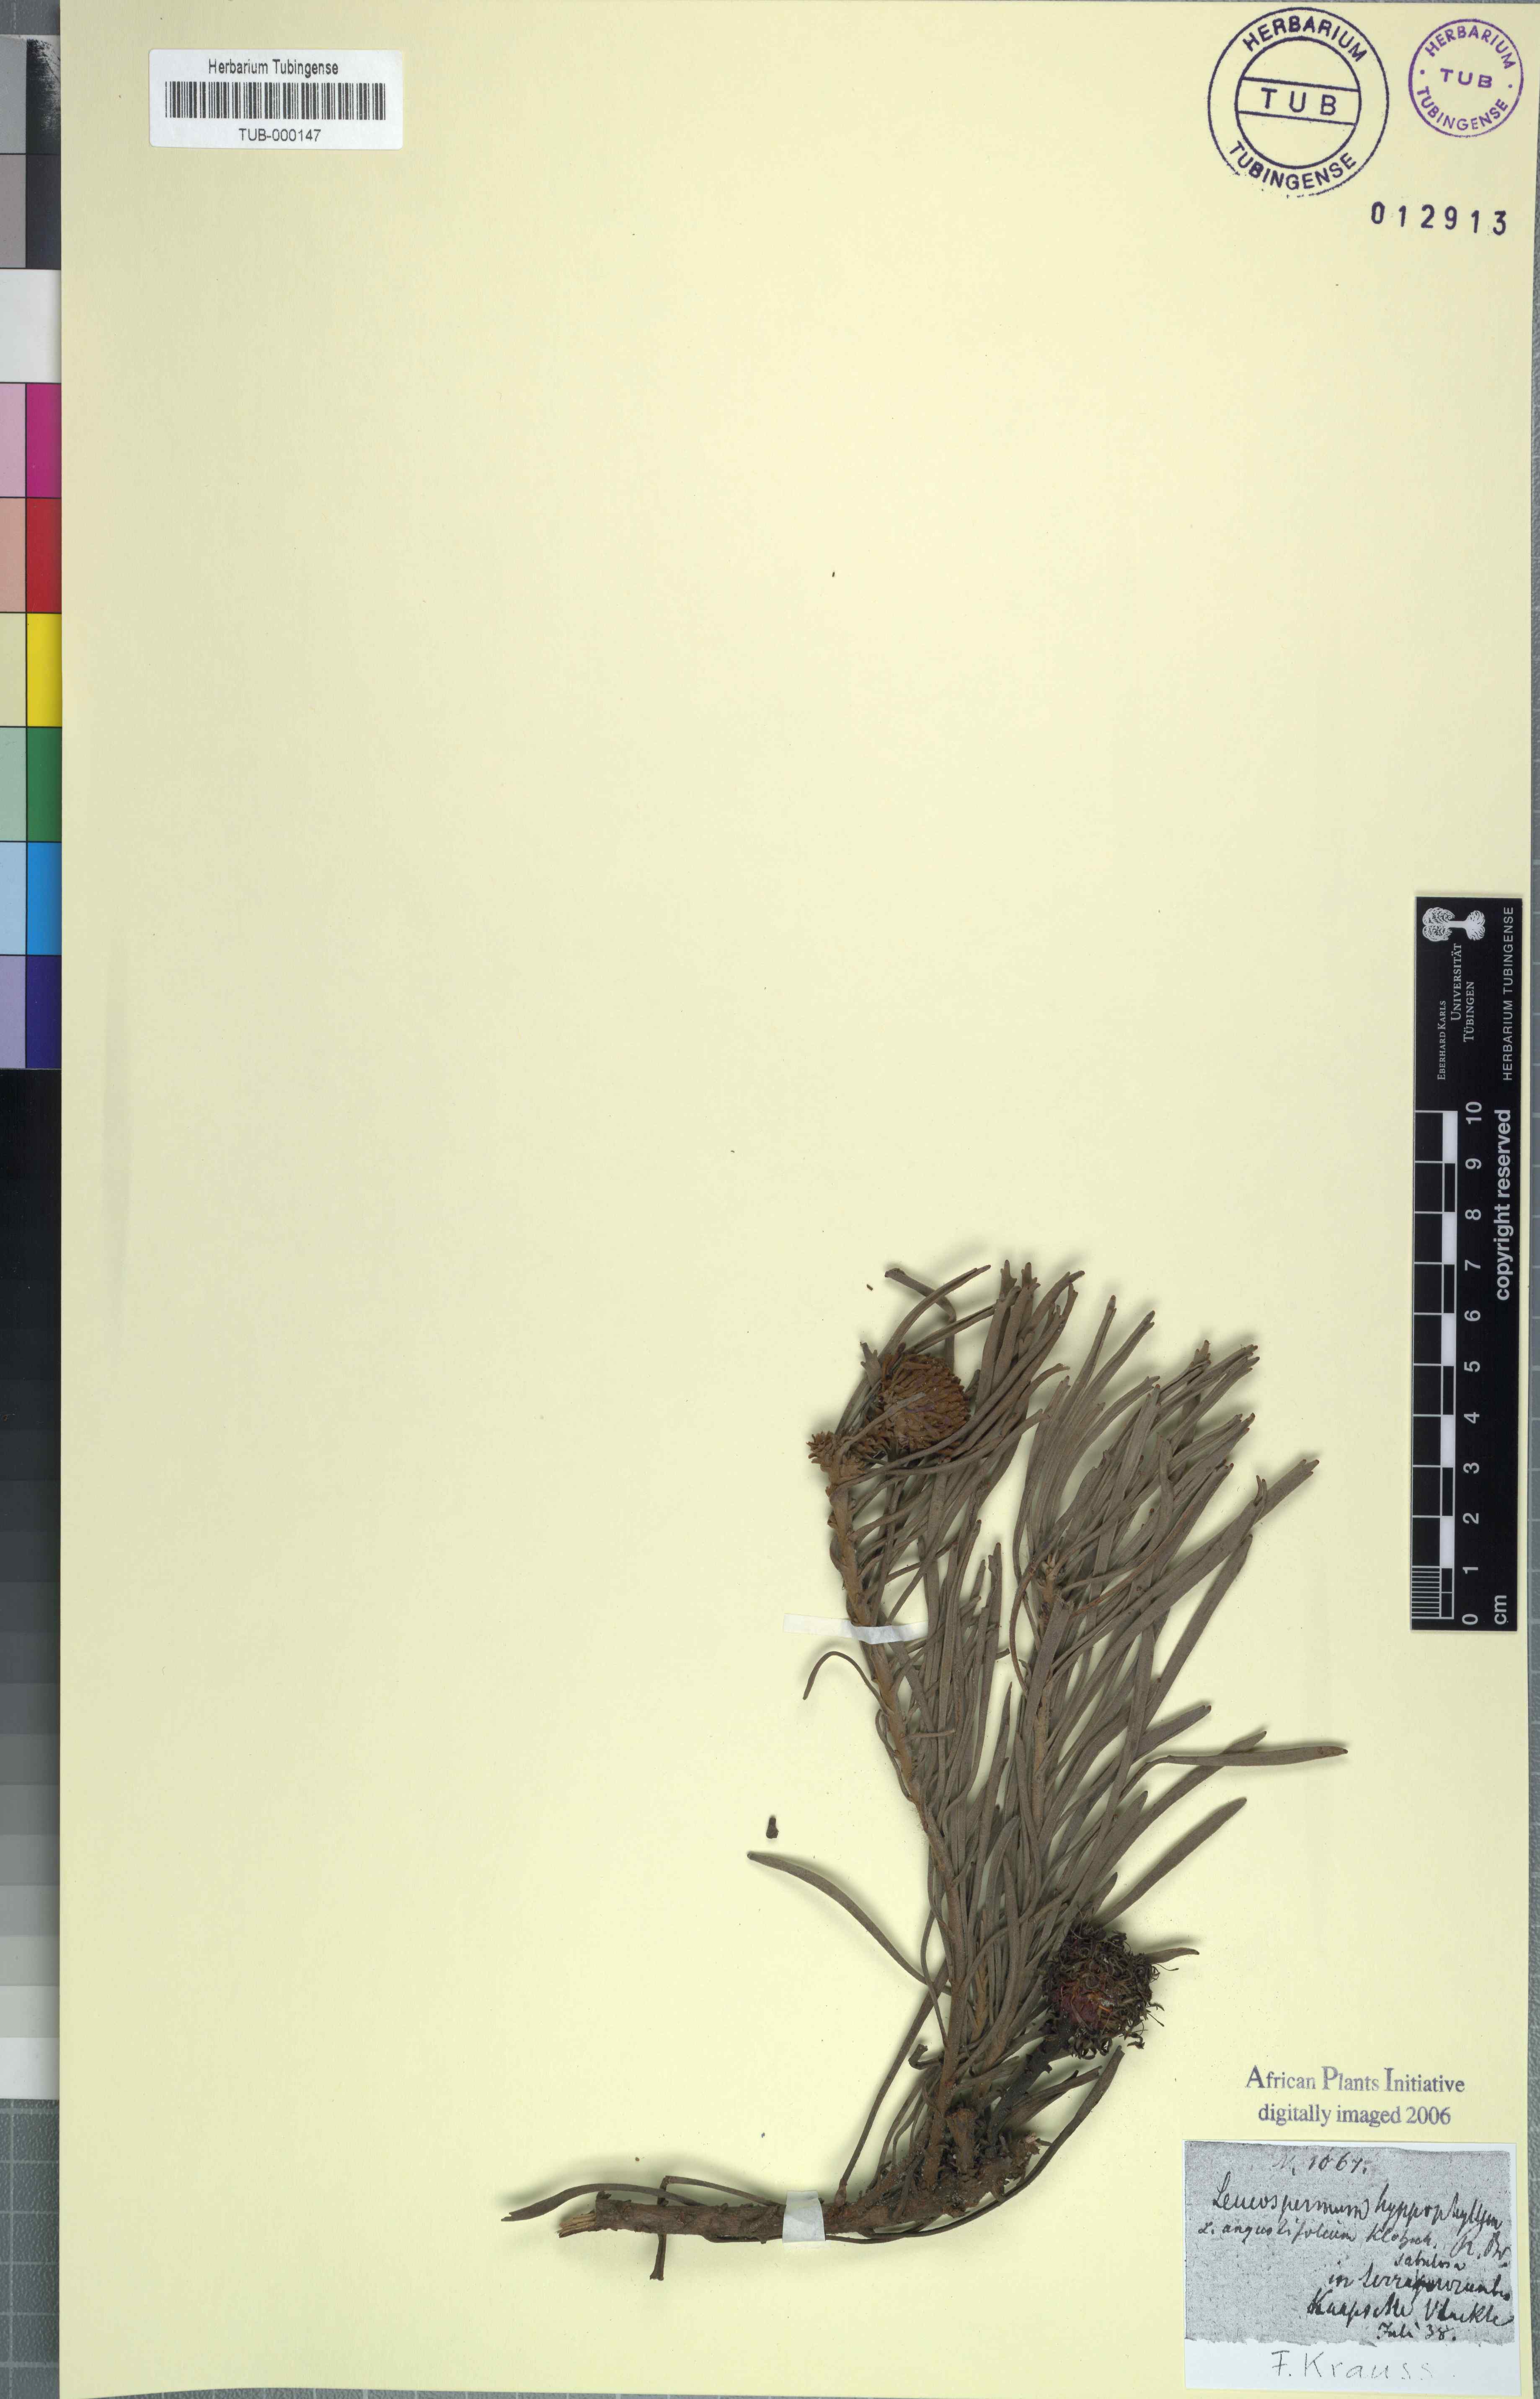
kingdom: Plantae
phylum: Tracheophyta
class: Magnoliopsida
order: Proteales
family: Proteaceae
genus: Leucospermum
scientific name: Leucospermum hypophyllocarpodendron
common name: Snakestem pincushion
